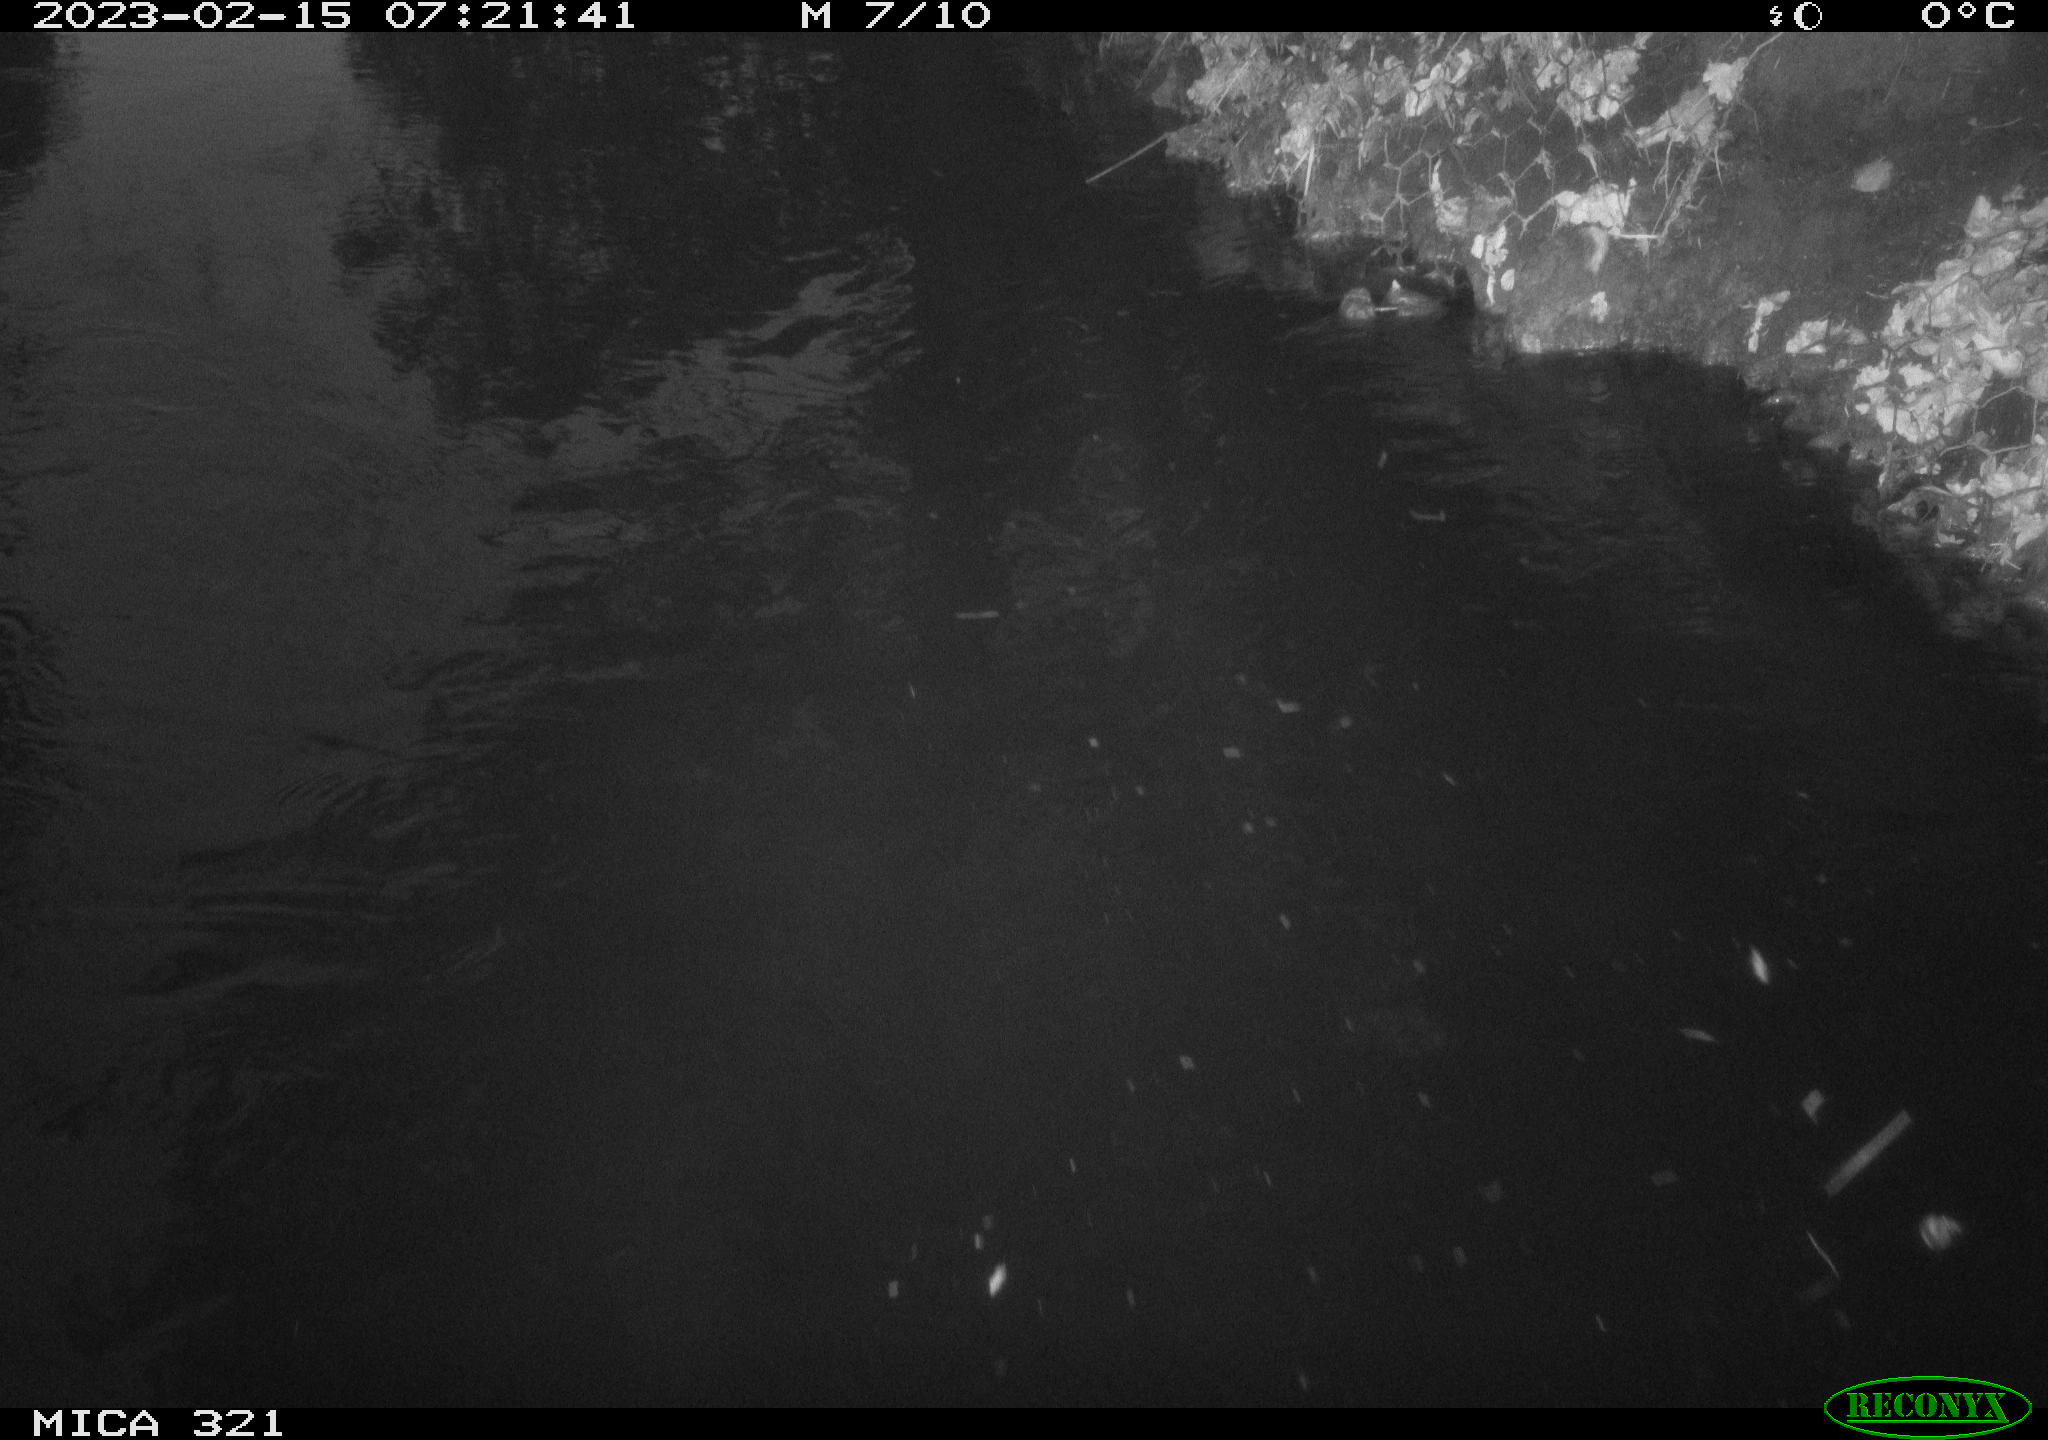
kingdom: Animalia
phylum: Chordata
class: Aves
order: Anseriformes
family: Anatidae
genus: Anas
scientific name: Anas
